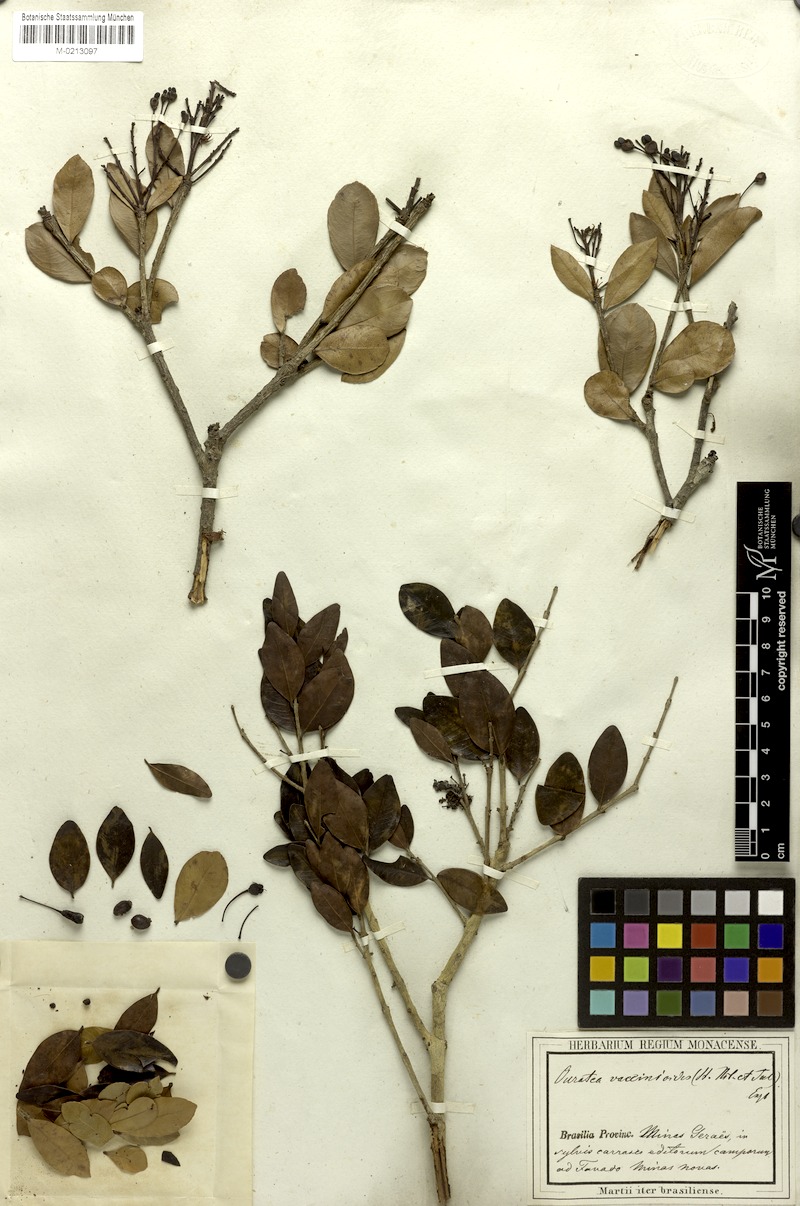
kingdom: Plantae
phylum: Tracheophyta
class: Magnoliopsida
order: Malpighiales
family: Ochnaceae
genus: Ouratea
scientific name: Ouratea vaccinioides
